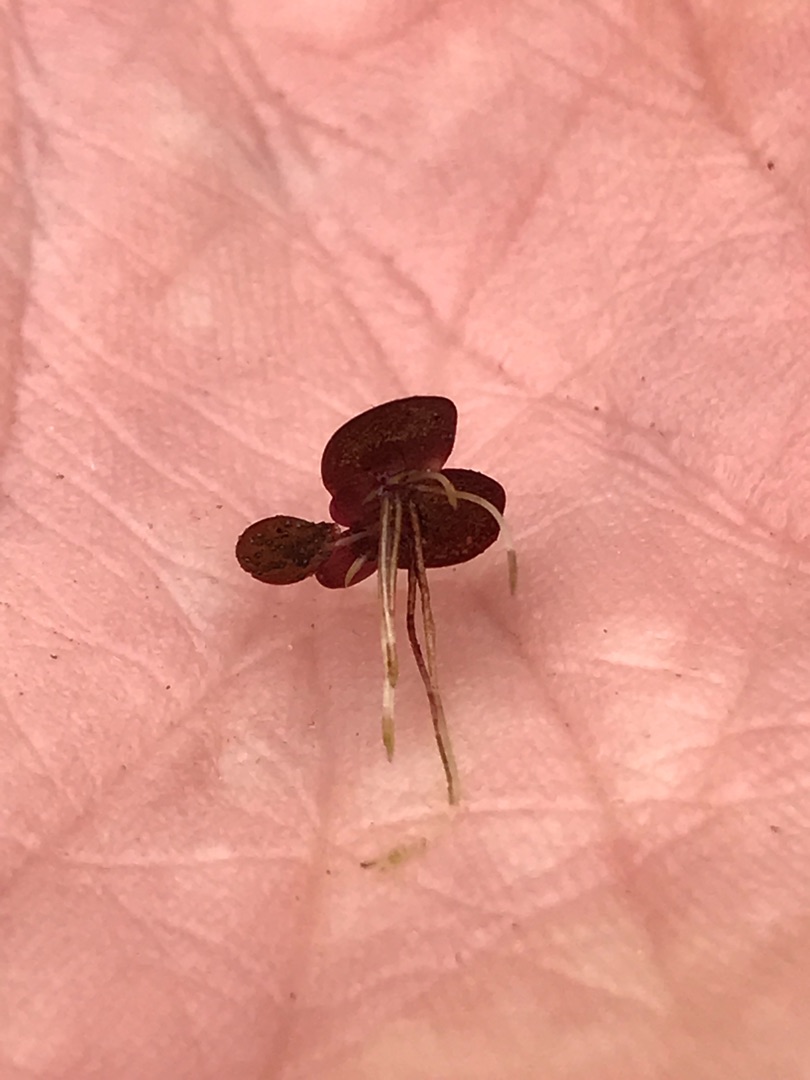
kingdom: Plantae
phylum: Tracheophyta
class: Liliopsida
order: Alismatales
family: Araceae
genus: Spirodela
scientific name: Spirodela polyrhiza
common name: Stor andemad
